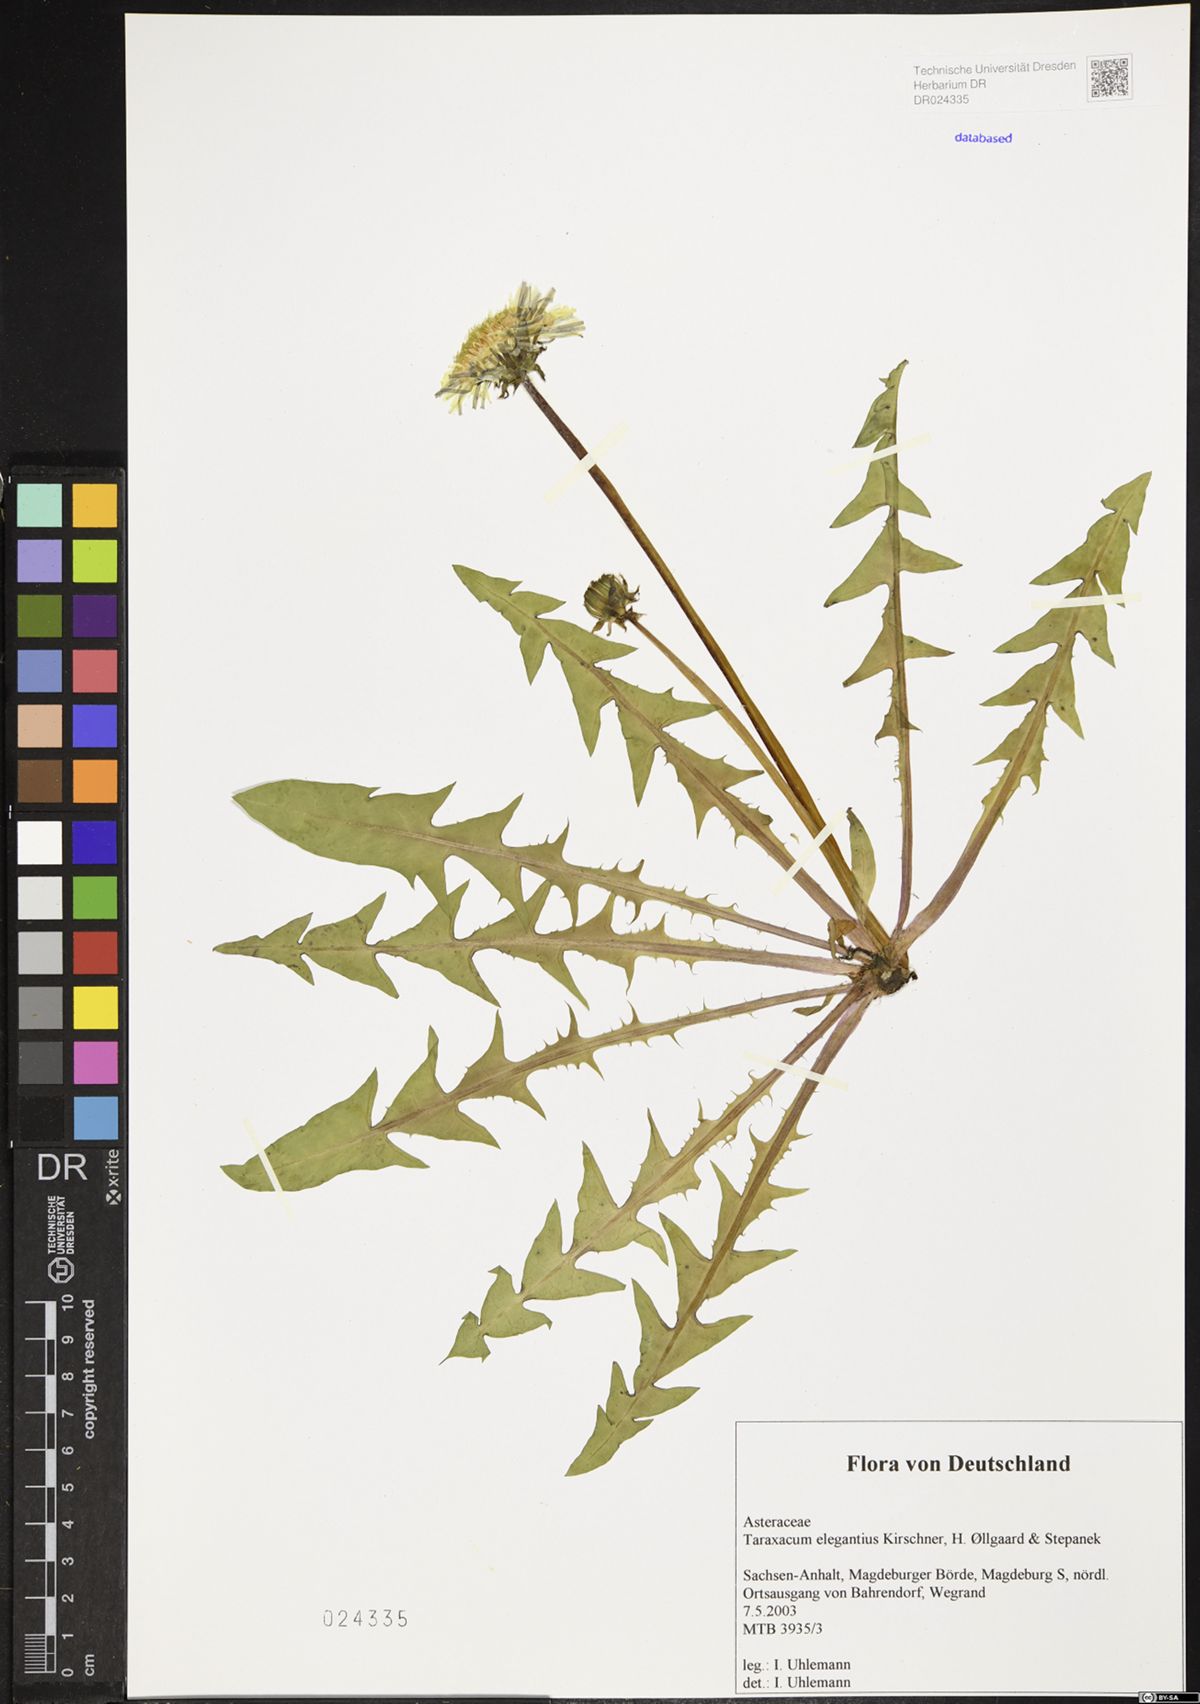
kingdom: Plantae
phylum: Tracheophyta
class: Magnoliopsida
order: Asterales
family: Asteraceae
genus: Taraxacum
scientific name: Taraxacum elegantius
